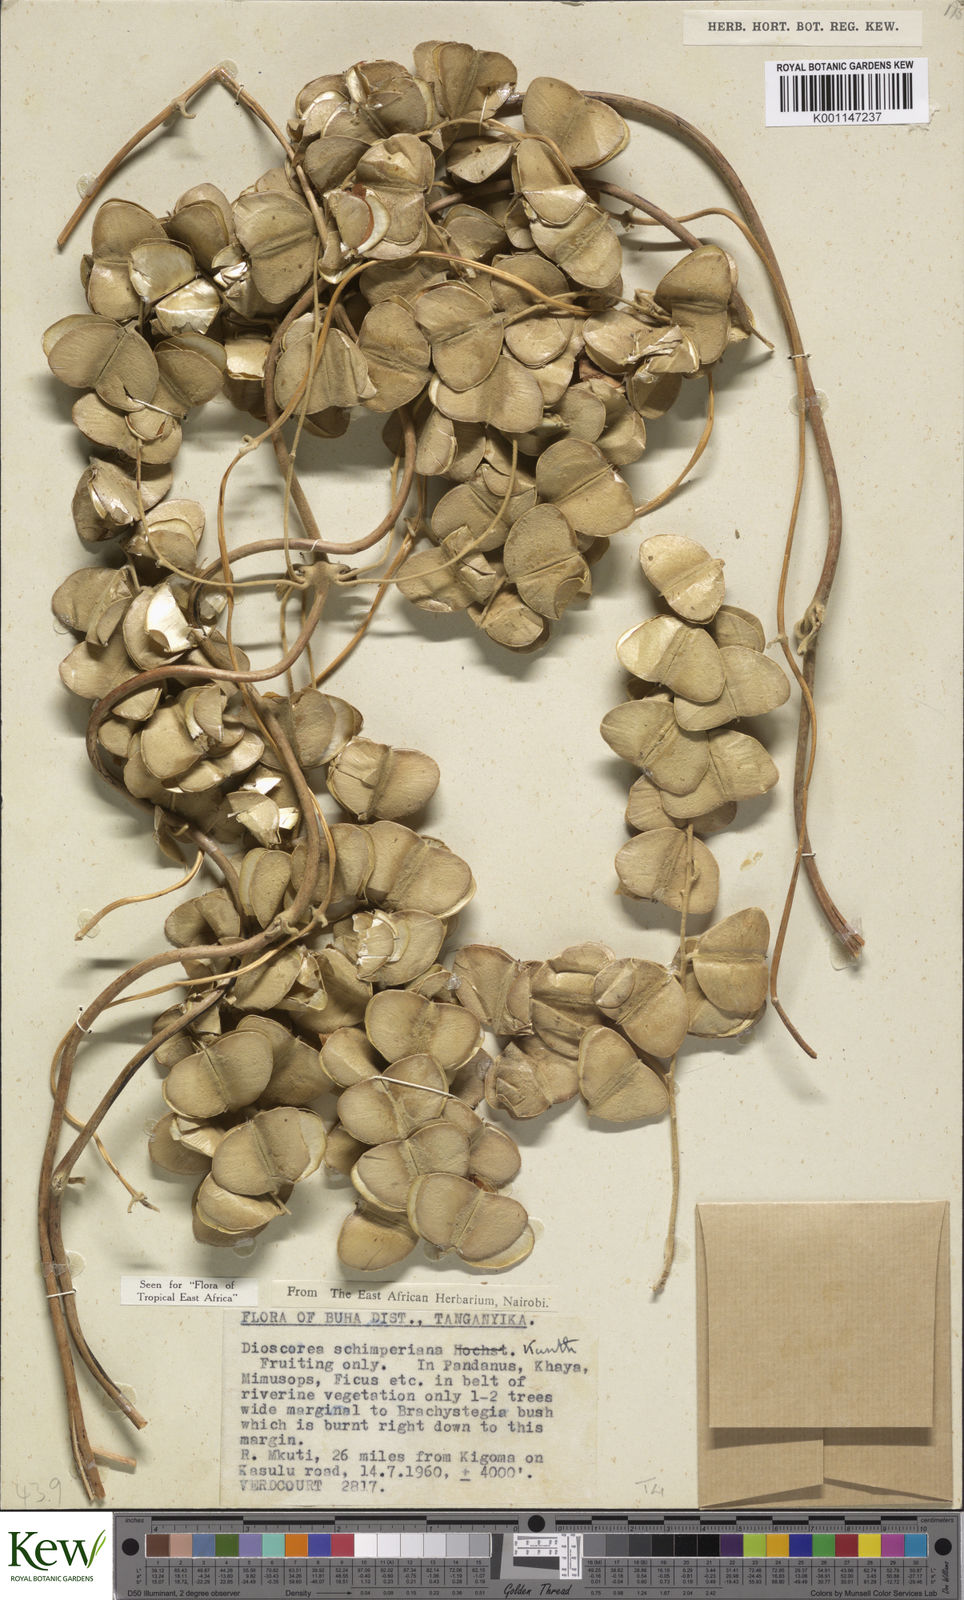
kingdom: Plantae
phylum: Tracheophyta
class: Liliopsida
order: Dioscoreales
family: Dioscoreaceae
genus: Dioscorea
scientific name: Dioscorea schimperiana
